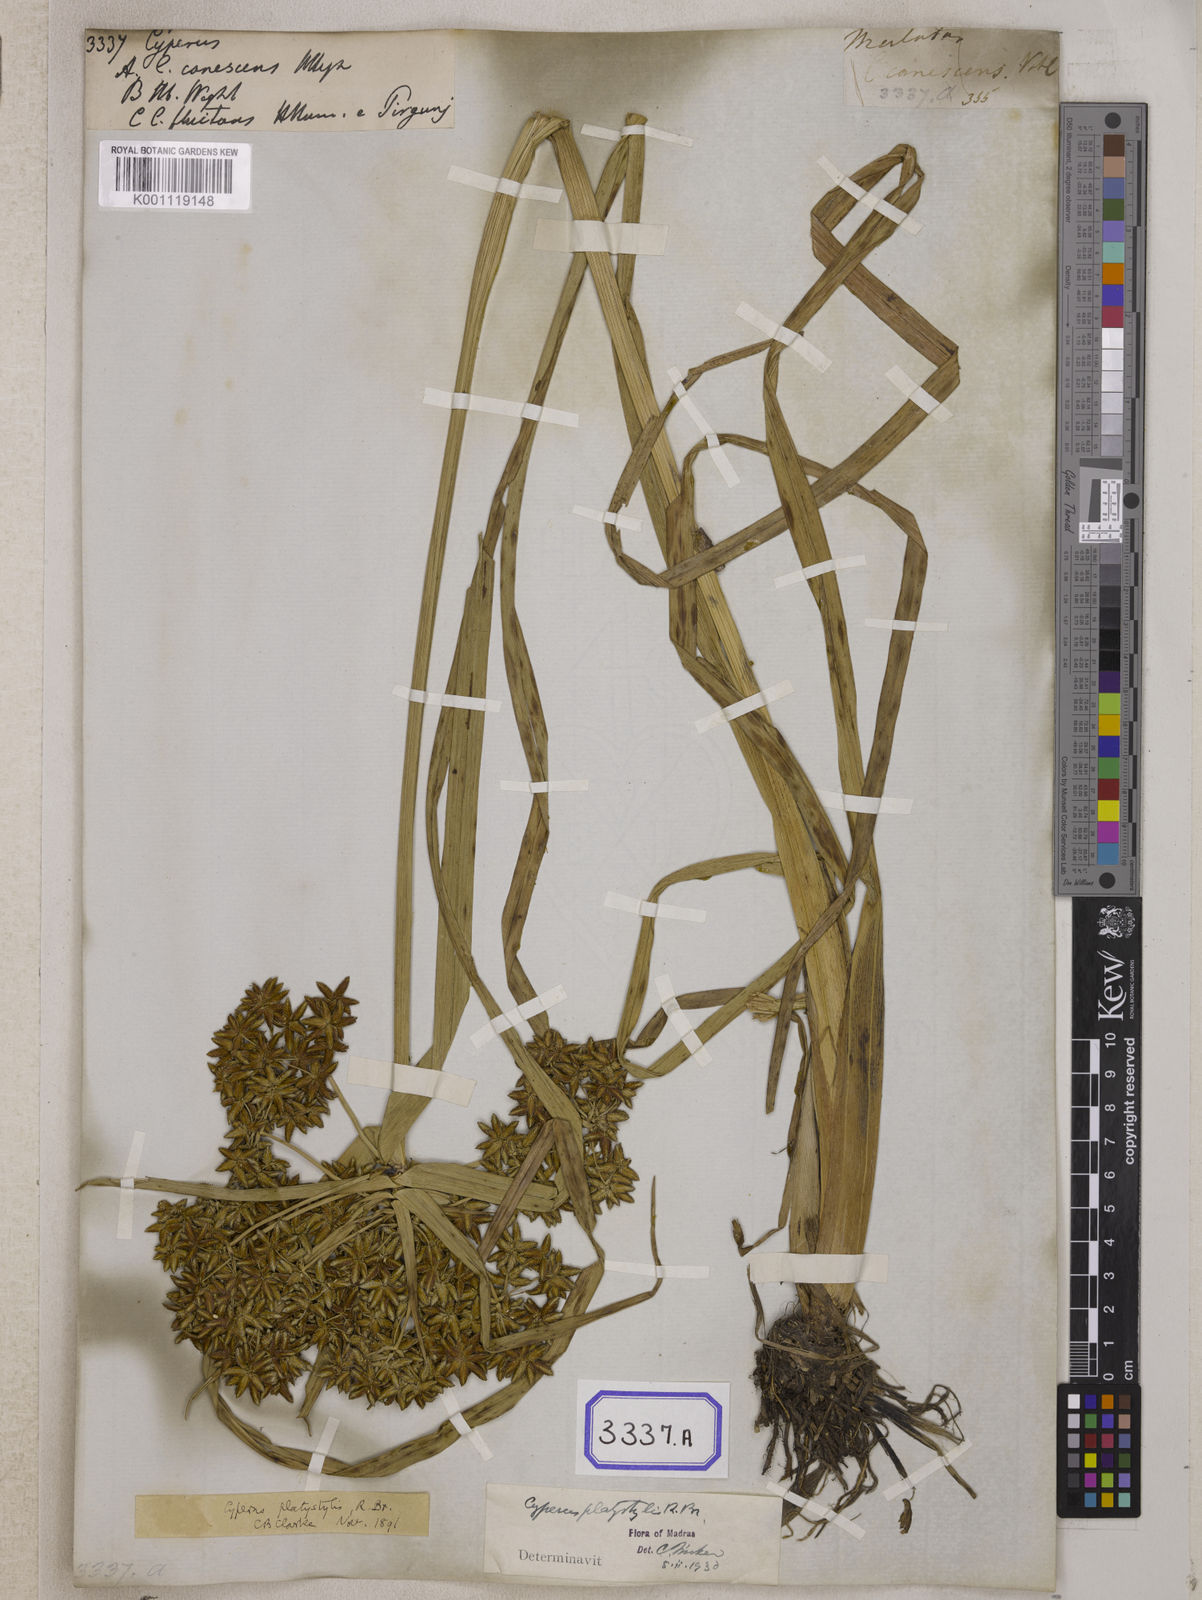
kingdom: Plantae
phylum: Tracheophyta
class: Liliopsida
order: Poales
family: Cyperaceae
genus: Cyperus
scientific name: Cyperus
